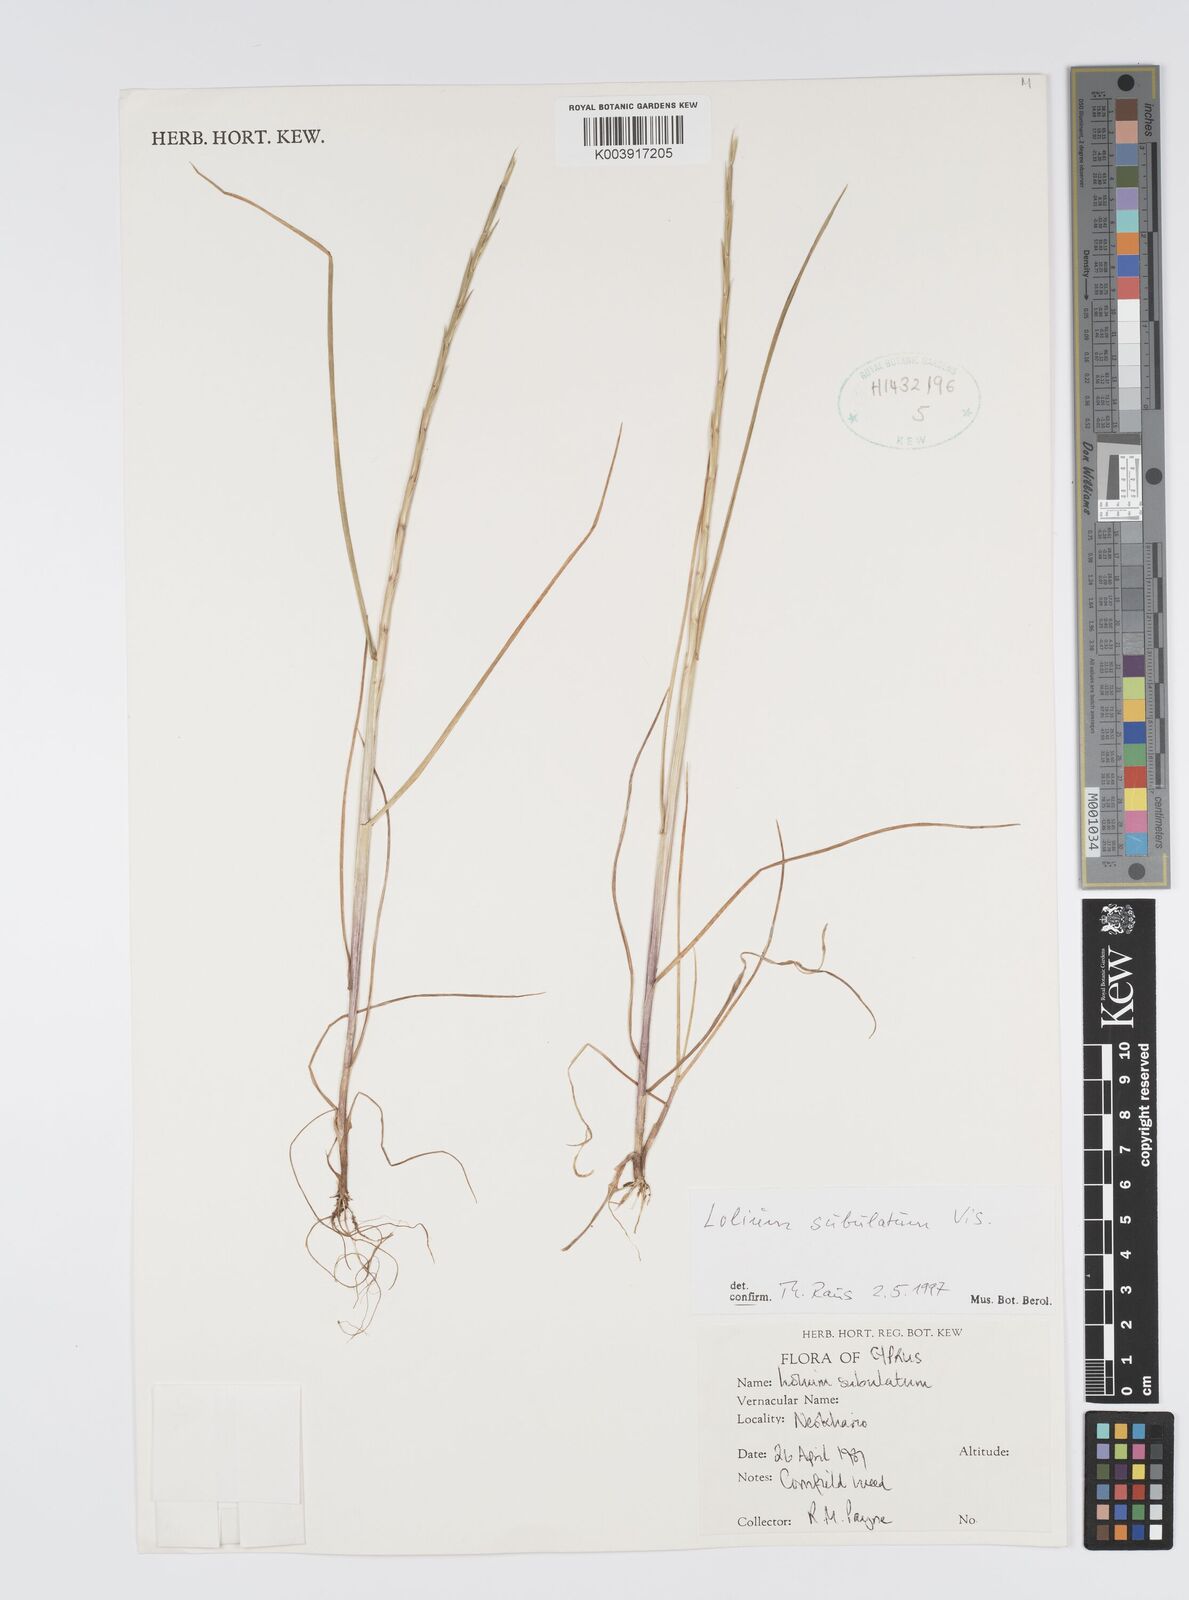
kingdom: Plantae
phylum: Tracheophyta
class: Liliopsida
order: Poales
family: Poaceae
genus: Lolium
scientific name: Lolium rigidum
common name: Wimmera ryegrass
